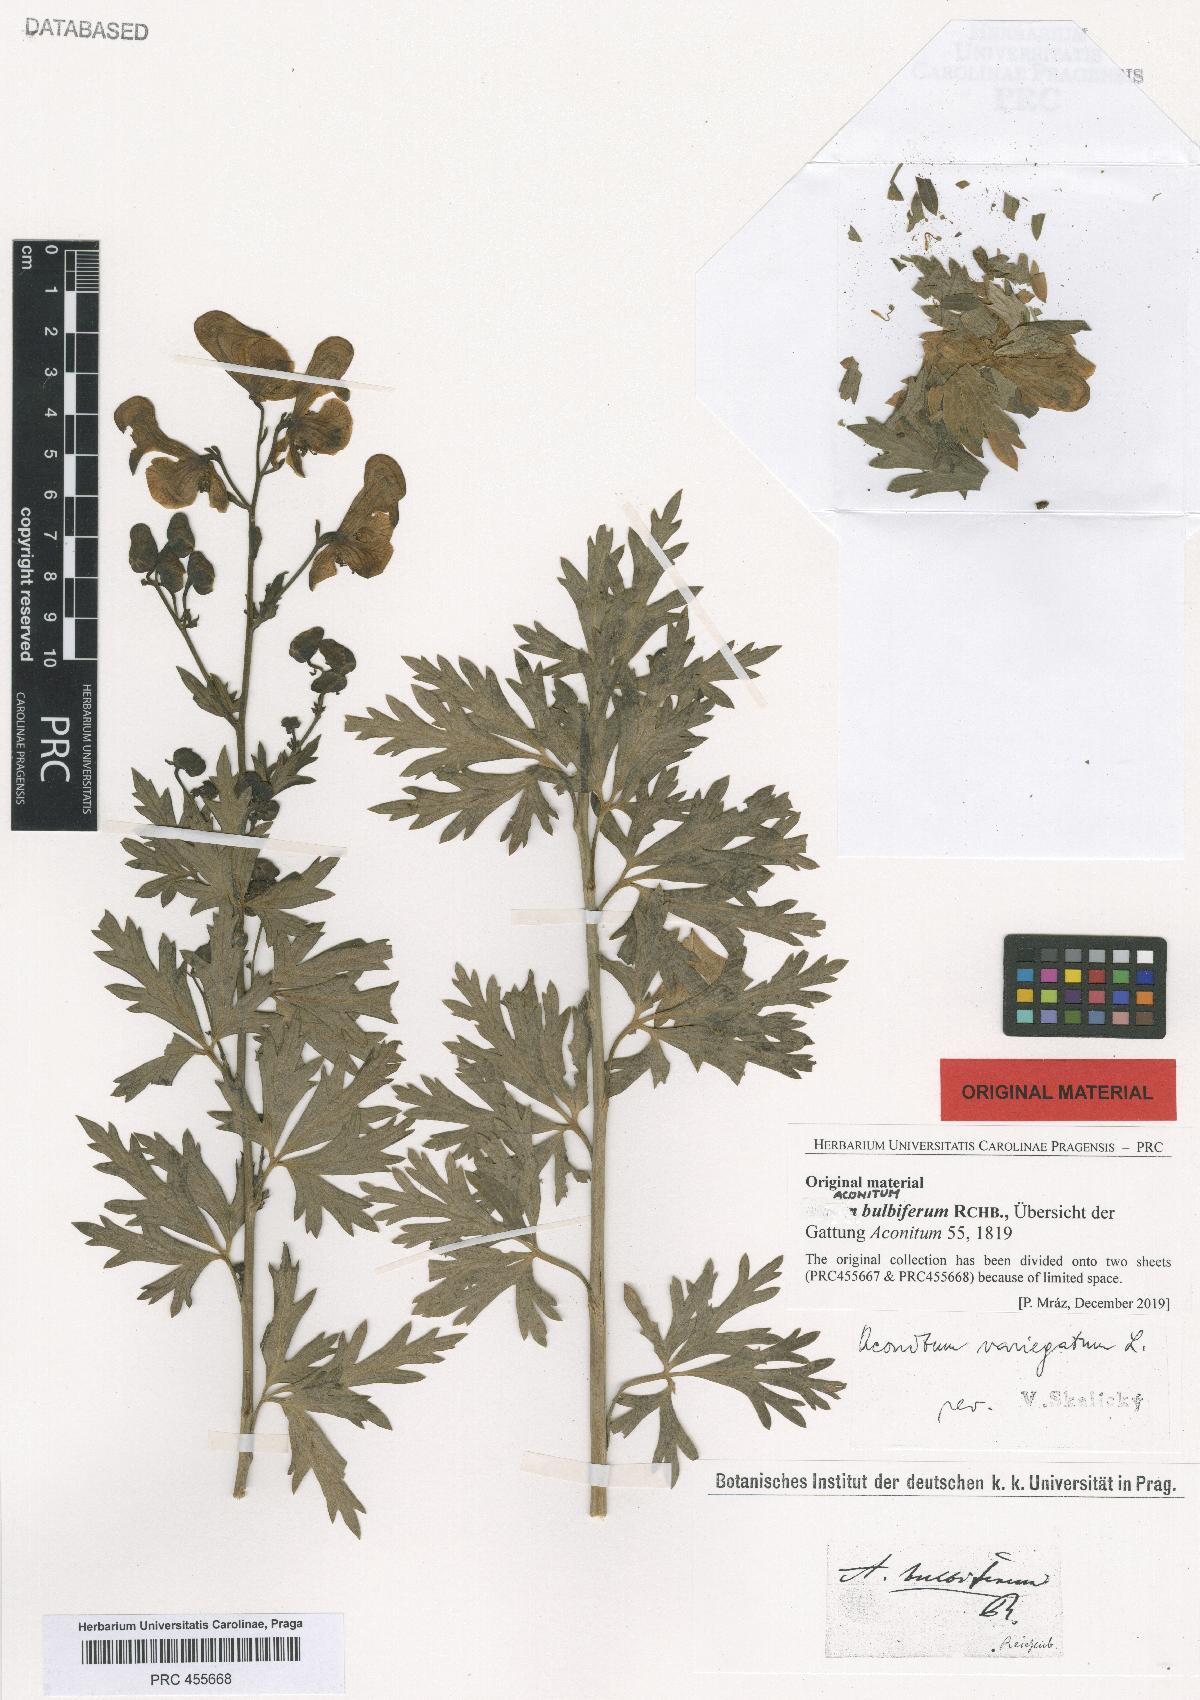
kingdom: Plantae
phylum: Tracheophyta
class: Magnoliopsida
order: Ranunculales
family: Ranunculaceae
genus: Aconitum
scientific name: Aconitum variegatum
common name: Manchurian monkshood
